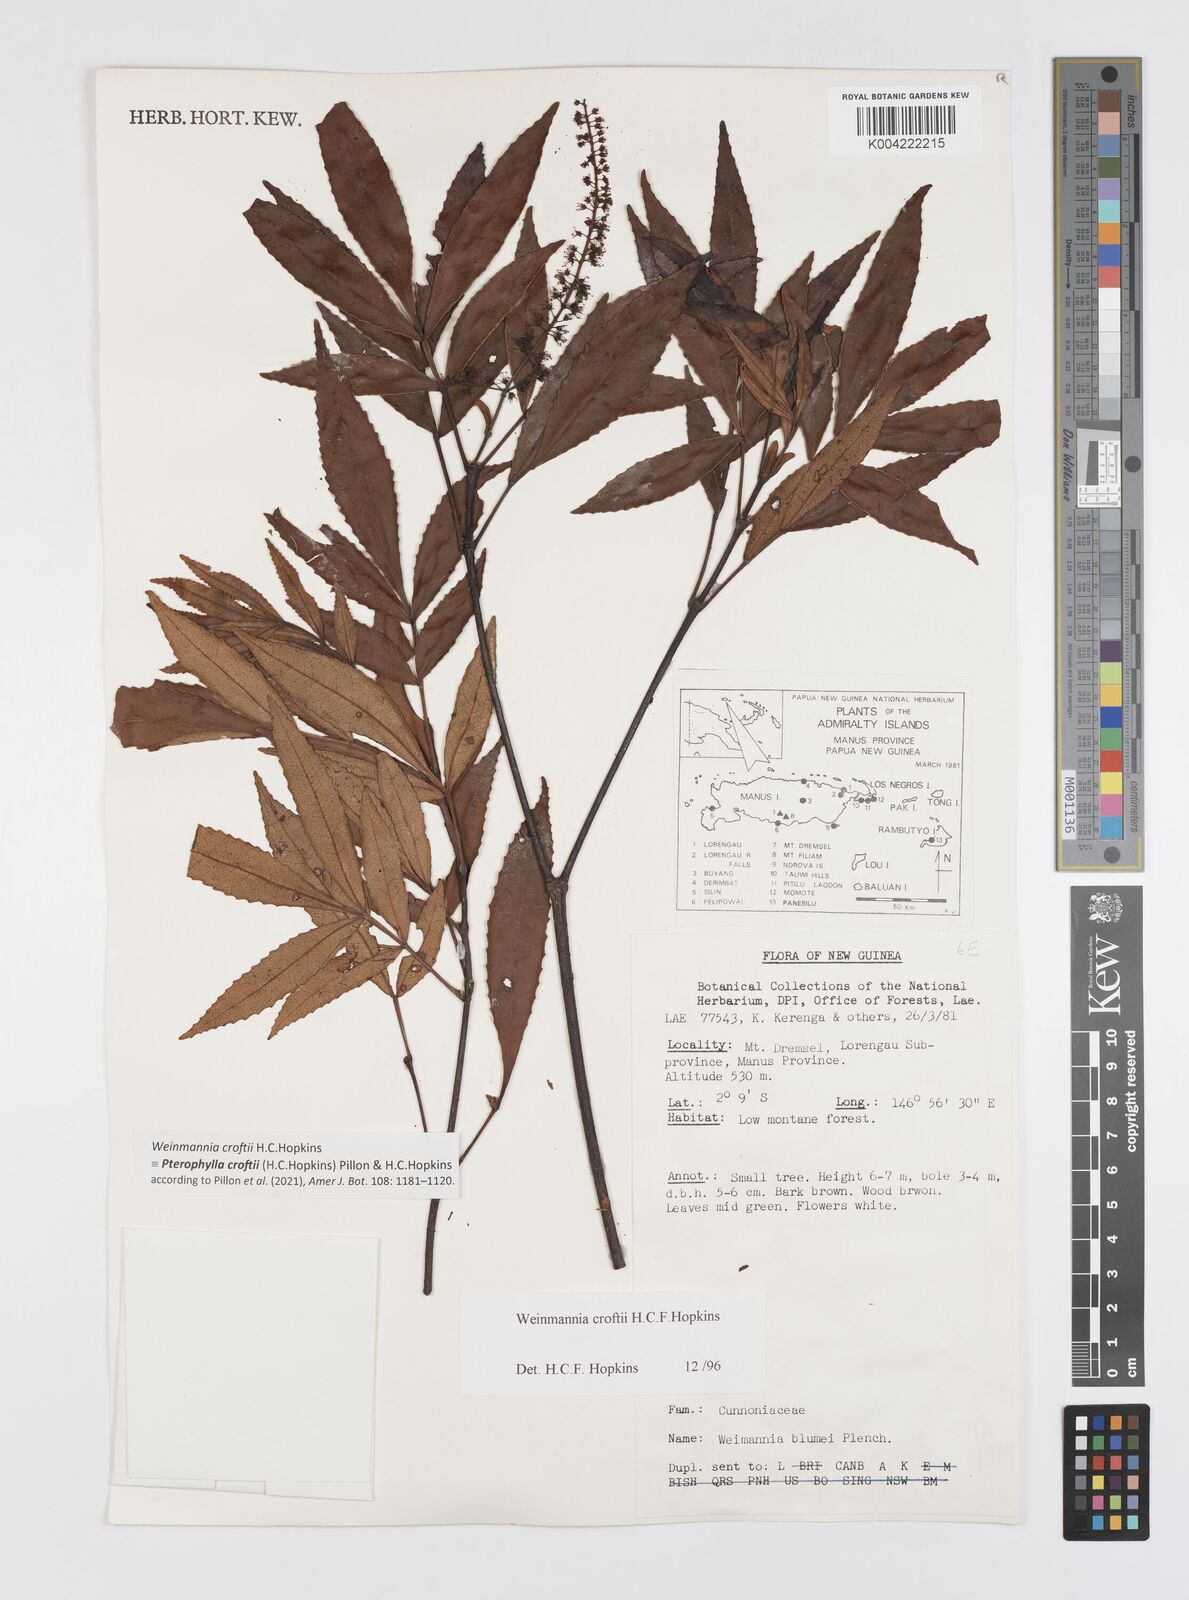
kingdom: Plantae
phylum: Tracheophyta
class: Magnoliopsida
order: Oxalidales
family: Cunoniaceae
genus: Pterophylla
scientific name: Pterophylla croftii
